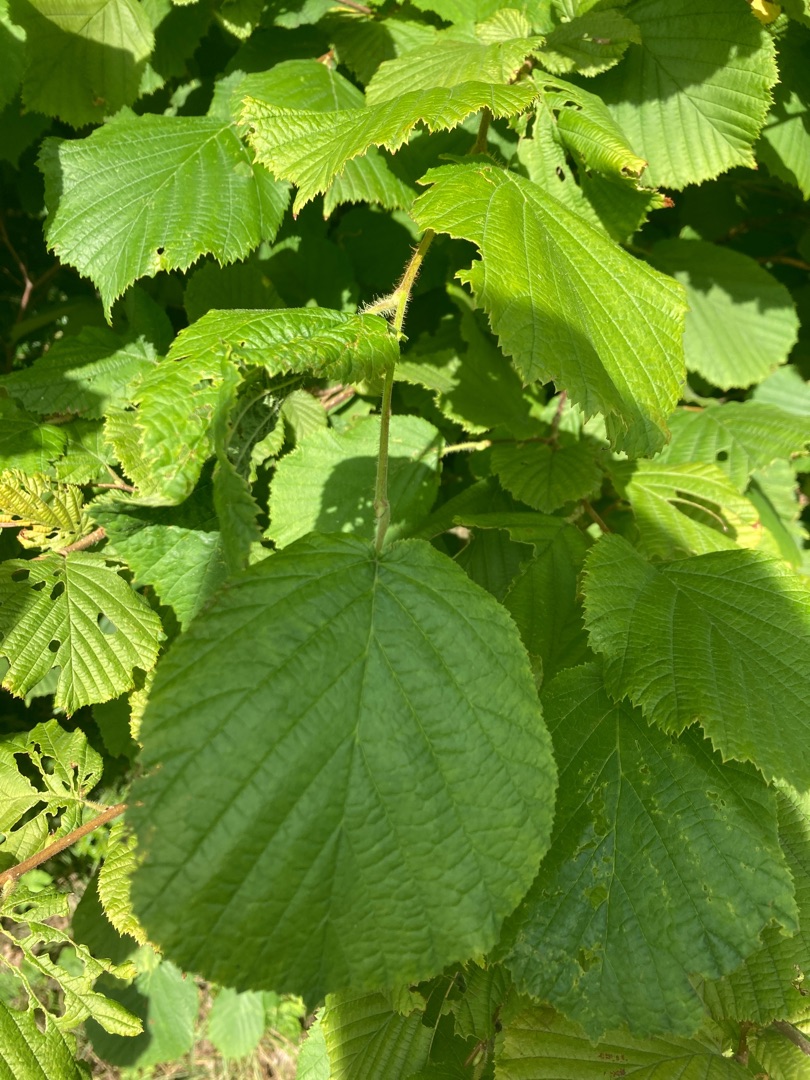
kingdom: Plantae
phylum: Tracheophyta
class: Magnoliopsida
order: Fagales
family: Betulaceae
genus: Corylus
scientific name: Corylus avellana
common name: Hassel
